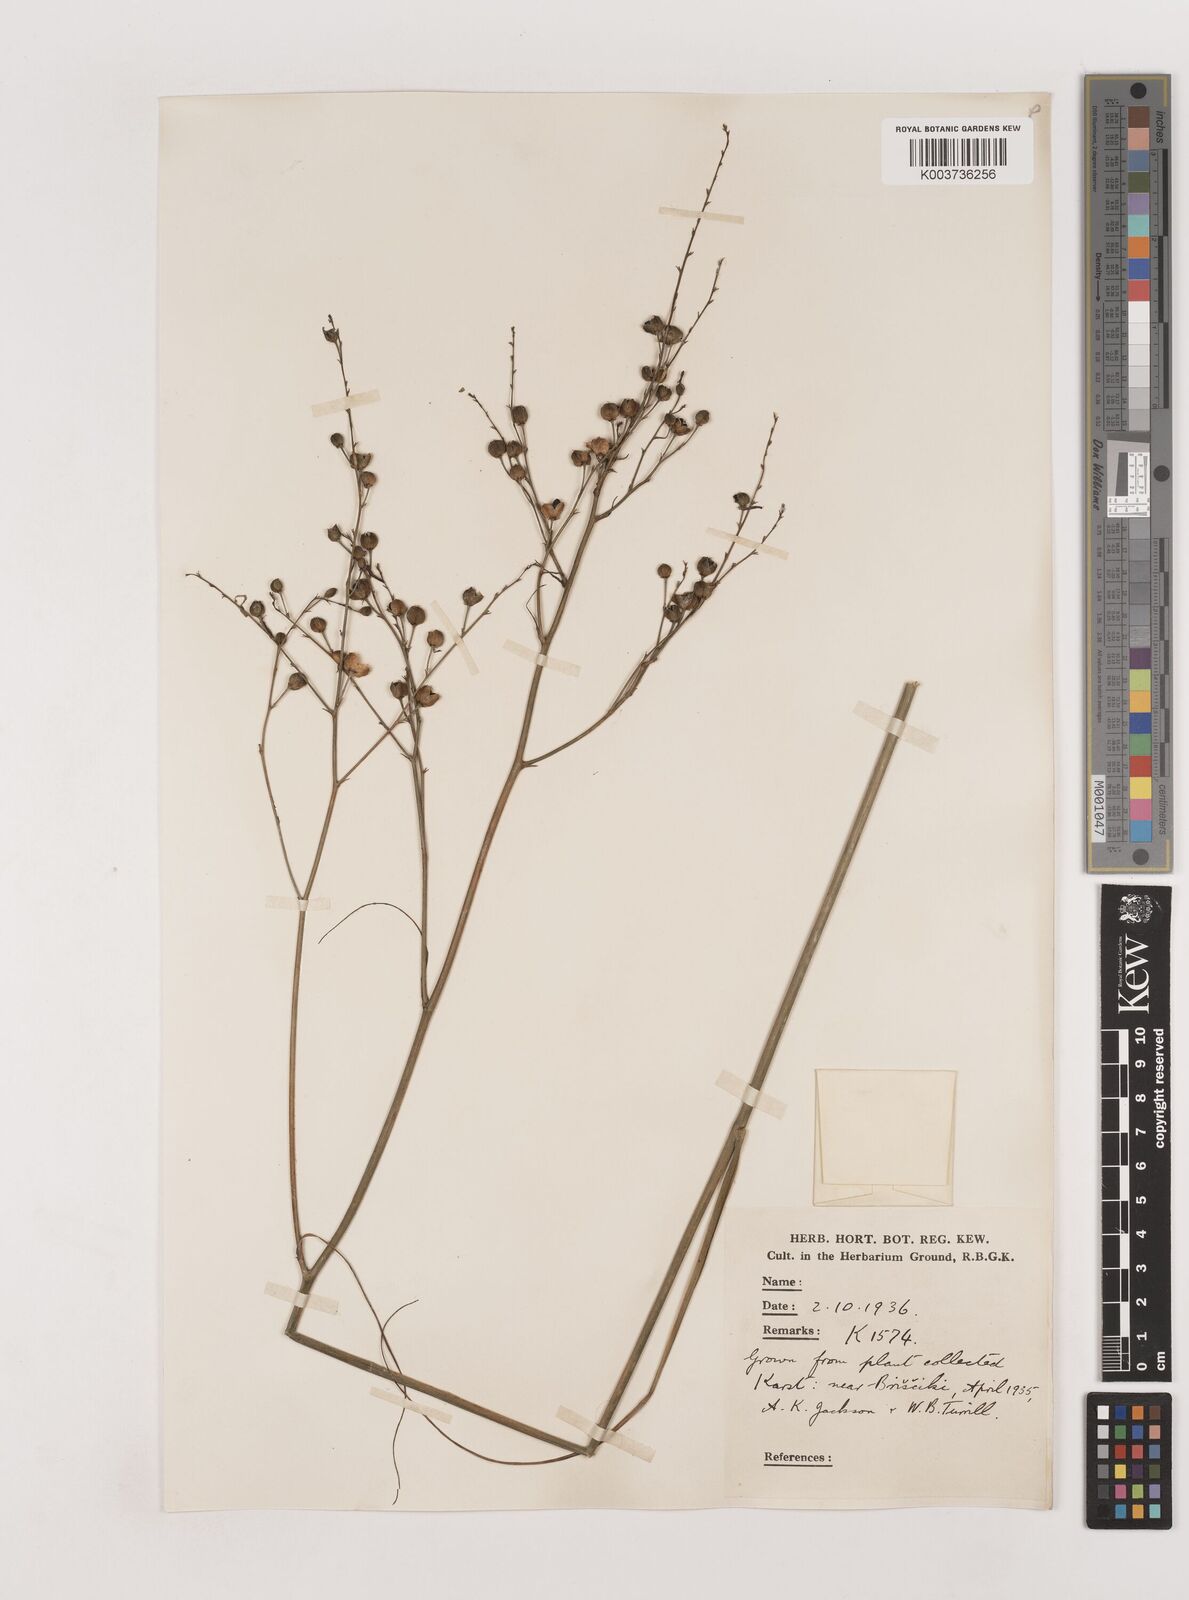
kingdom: Plantae
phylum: Tracheophyta
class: Liliopsida
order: Asparagales
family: Asparagaceae
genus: Anthericum
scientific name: Anthericum ramosum
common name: Branched st. bernard's-lily
